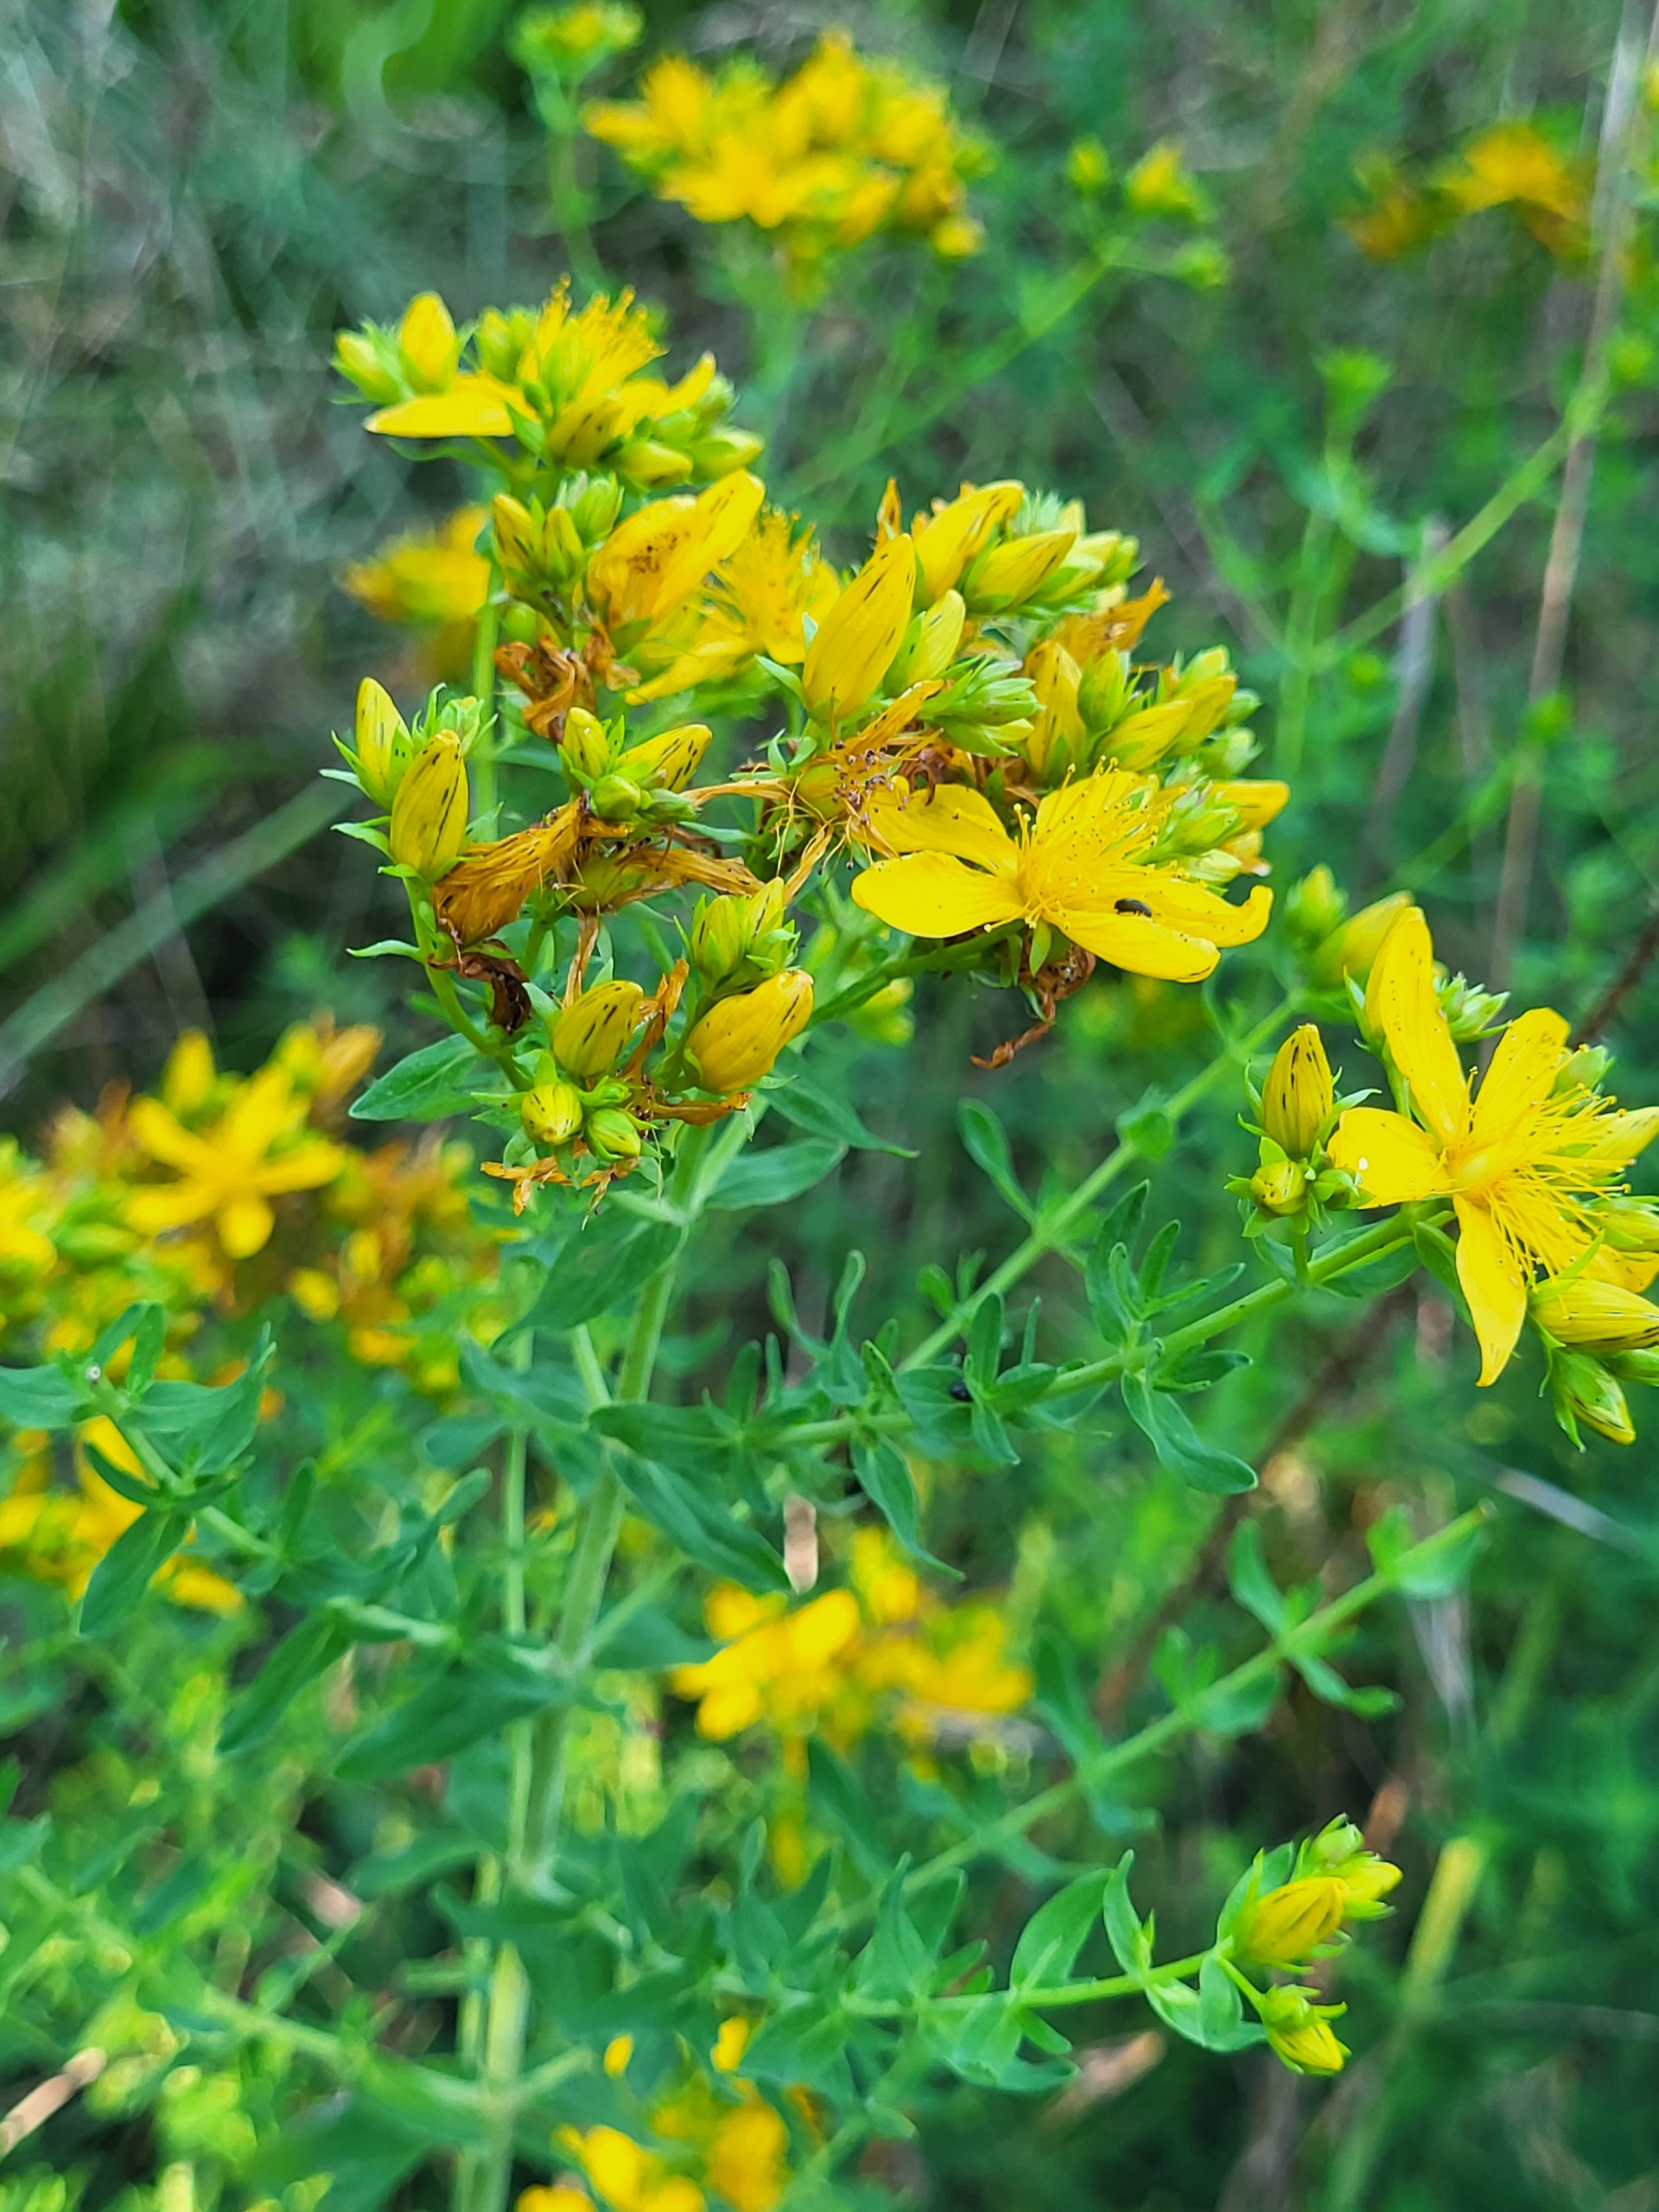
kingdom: Plantae
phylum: Tracheophyta
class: Magnoliopsida
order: Malpighiales
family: Hypericaceae
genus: Hypericum
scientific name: Hypericum perforatum
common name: Prikbladet perikon
